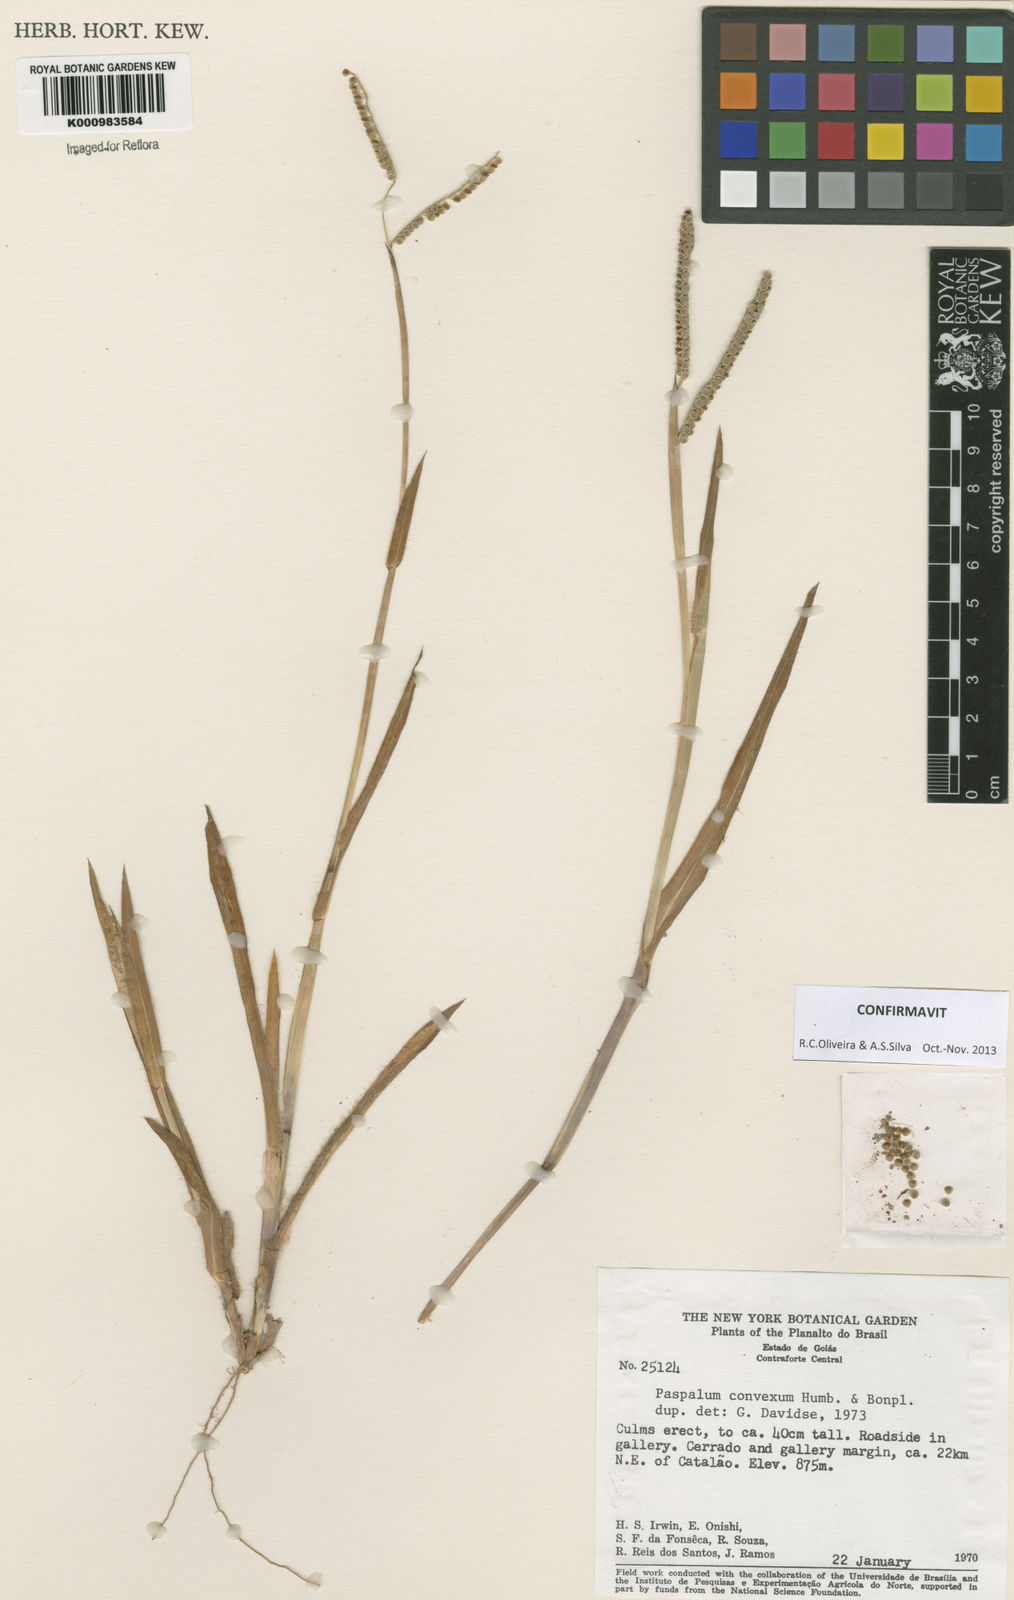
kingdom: Plantae
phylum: Tracheophyta
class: Liliopsida
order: Poales
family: Poaceae
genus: Paspalum
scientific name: Paspalum
